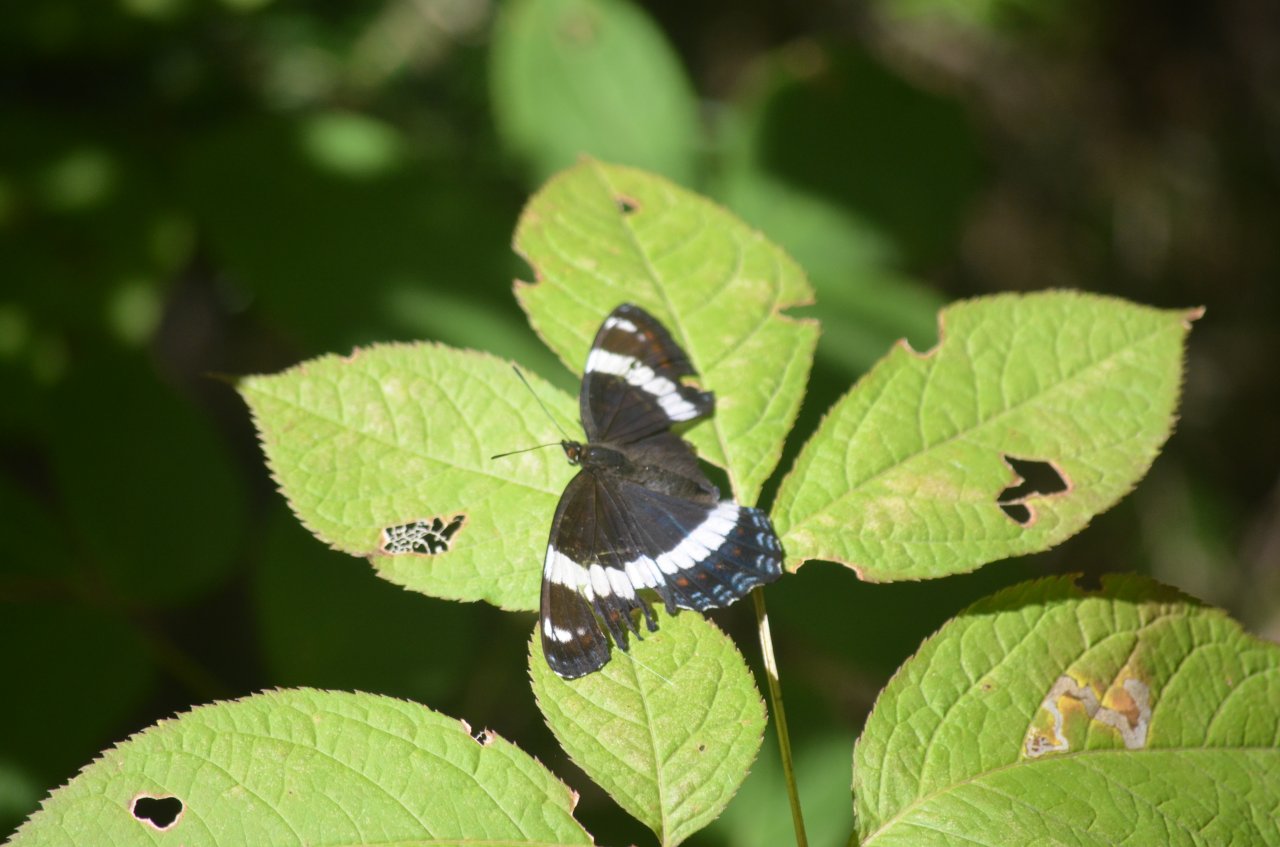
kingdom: Animalia
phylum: Arthropoda
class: Insecta
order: Lepidoptera
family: Nymphalidae
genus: Limenitis
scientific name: Limenitis arthemis
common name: Red-spotted Admiral
